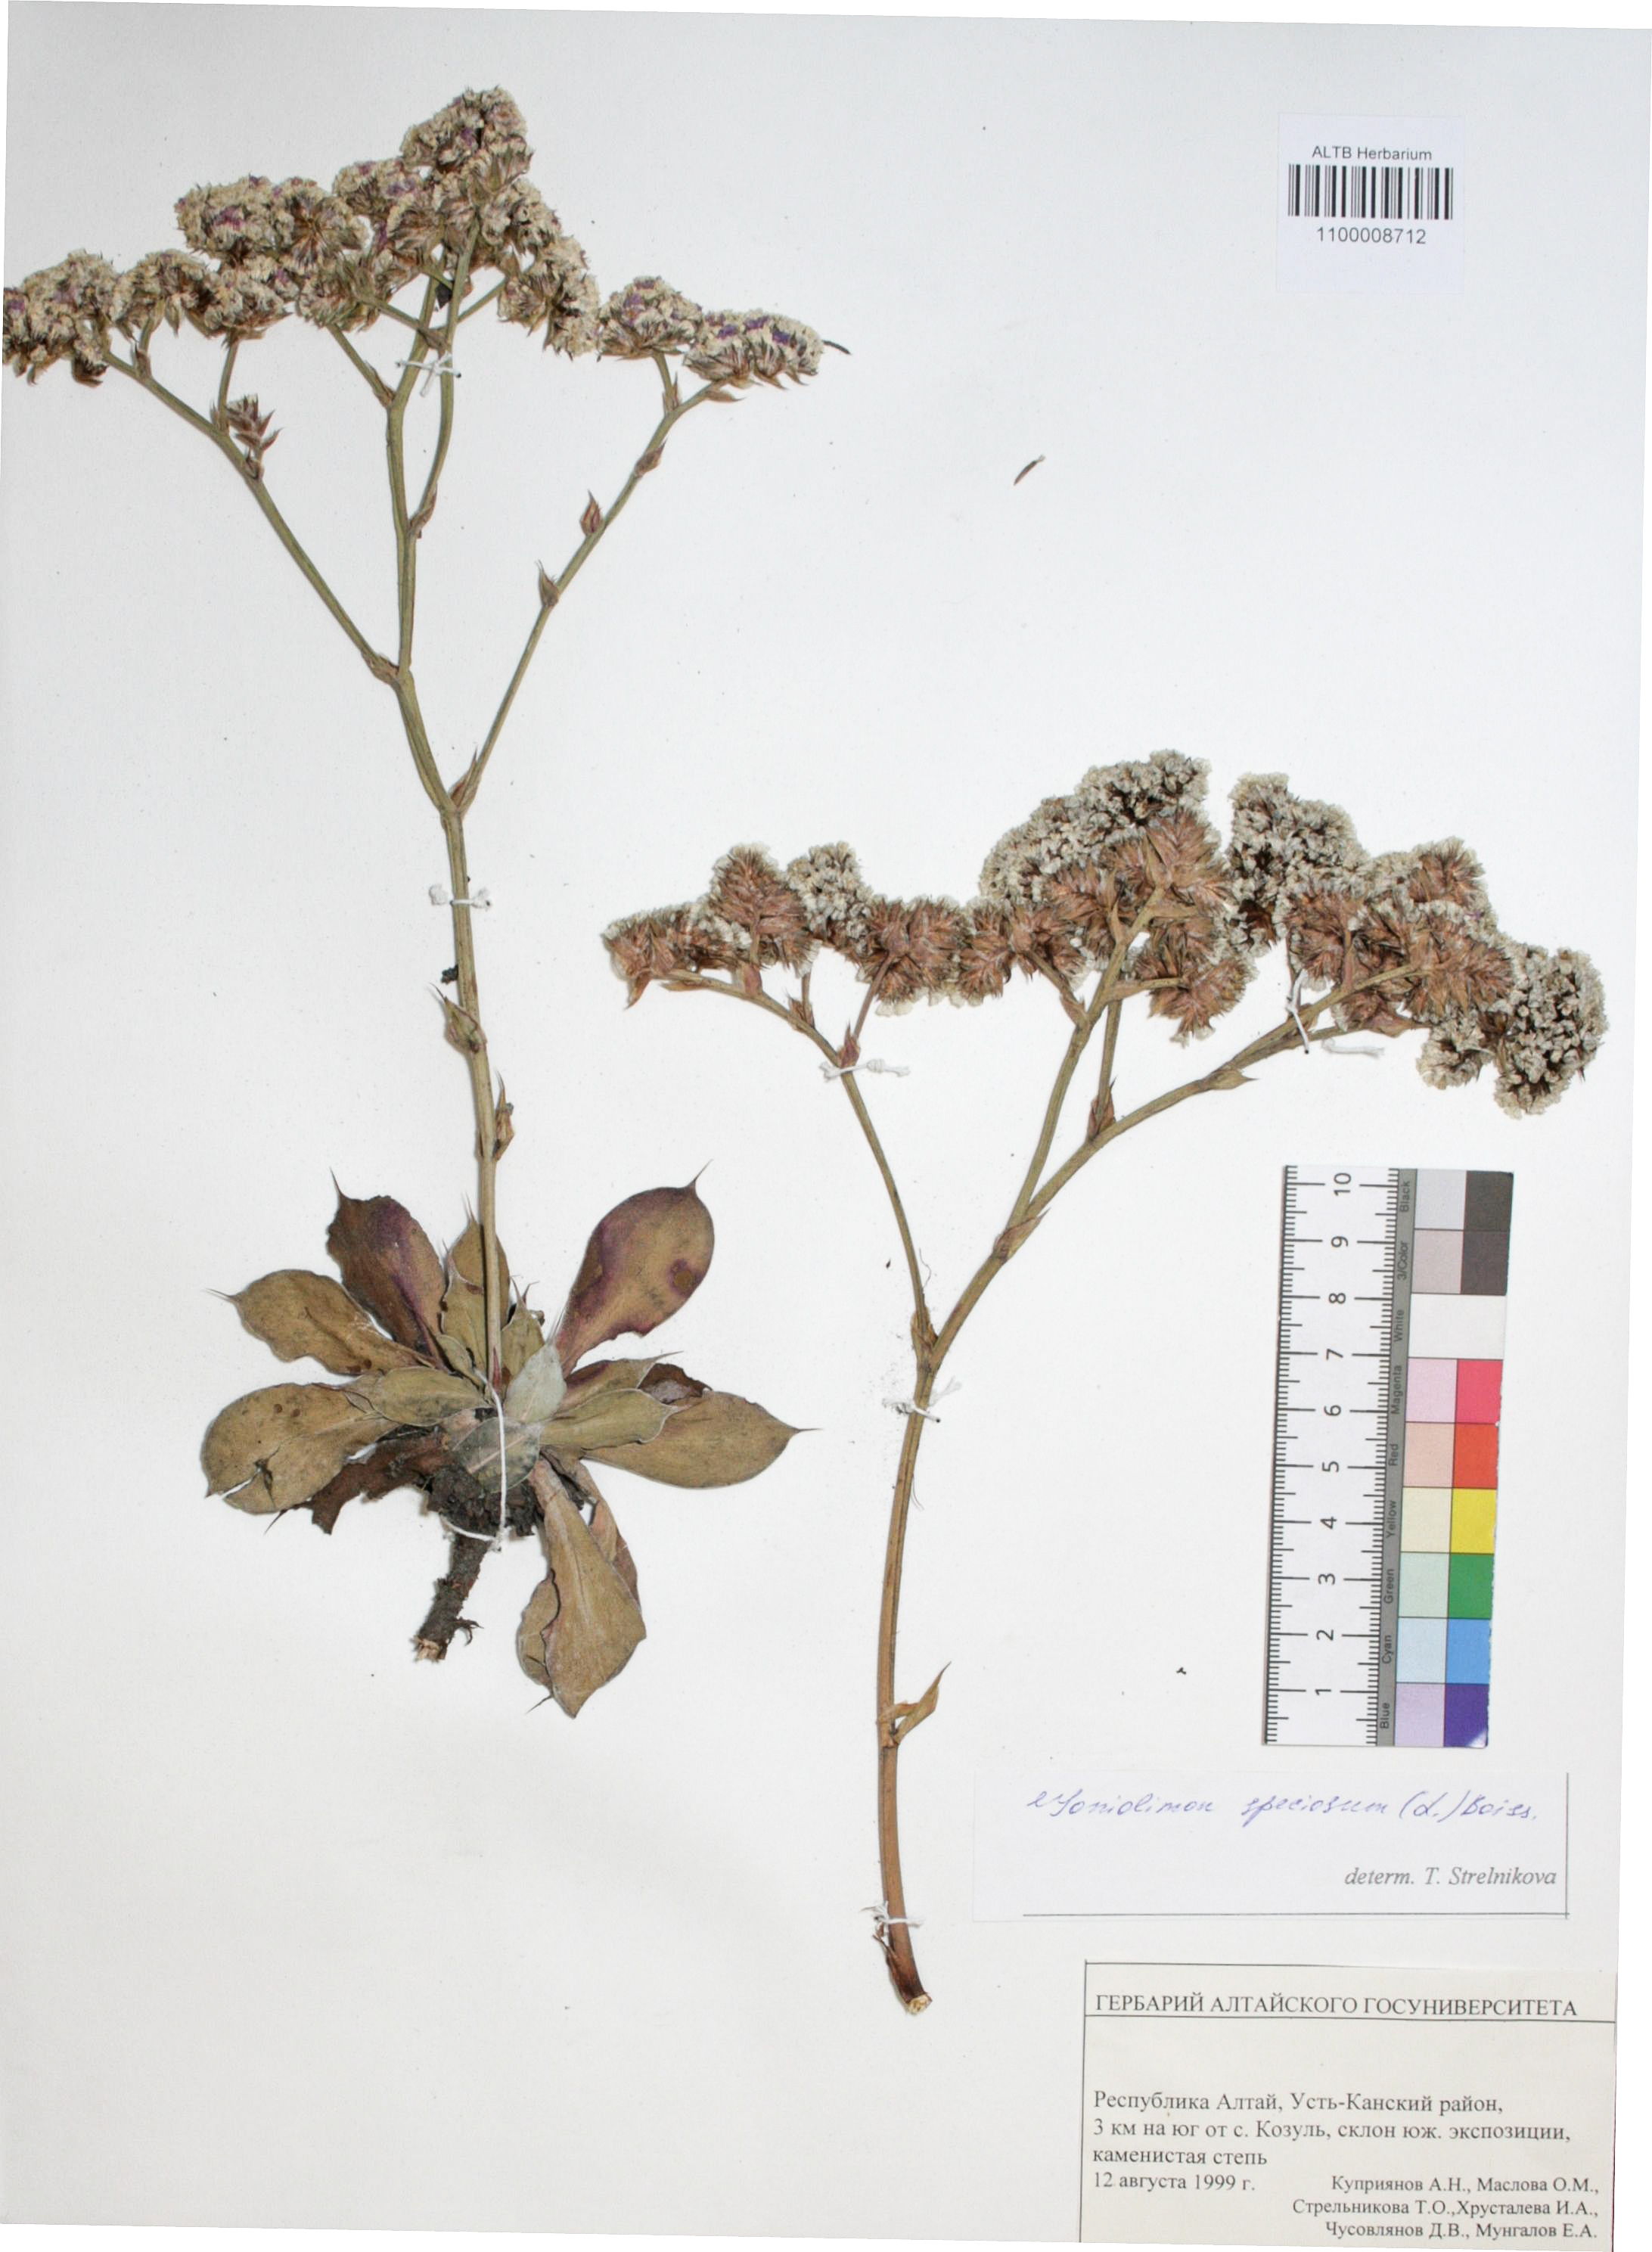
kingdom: Plantae
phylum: Tracheophyta
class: Magnoliopsida
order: Caryophyllales
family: Plumbaginaceae
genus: Goniolimon
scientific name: Goniolimon speciosum
